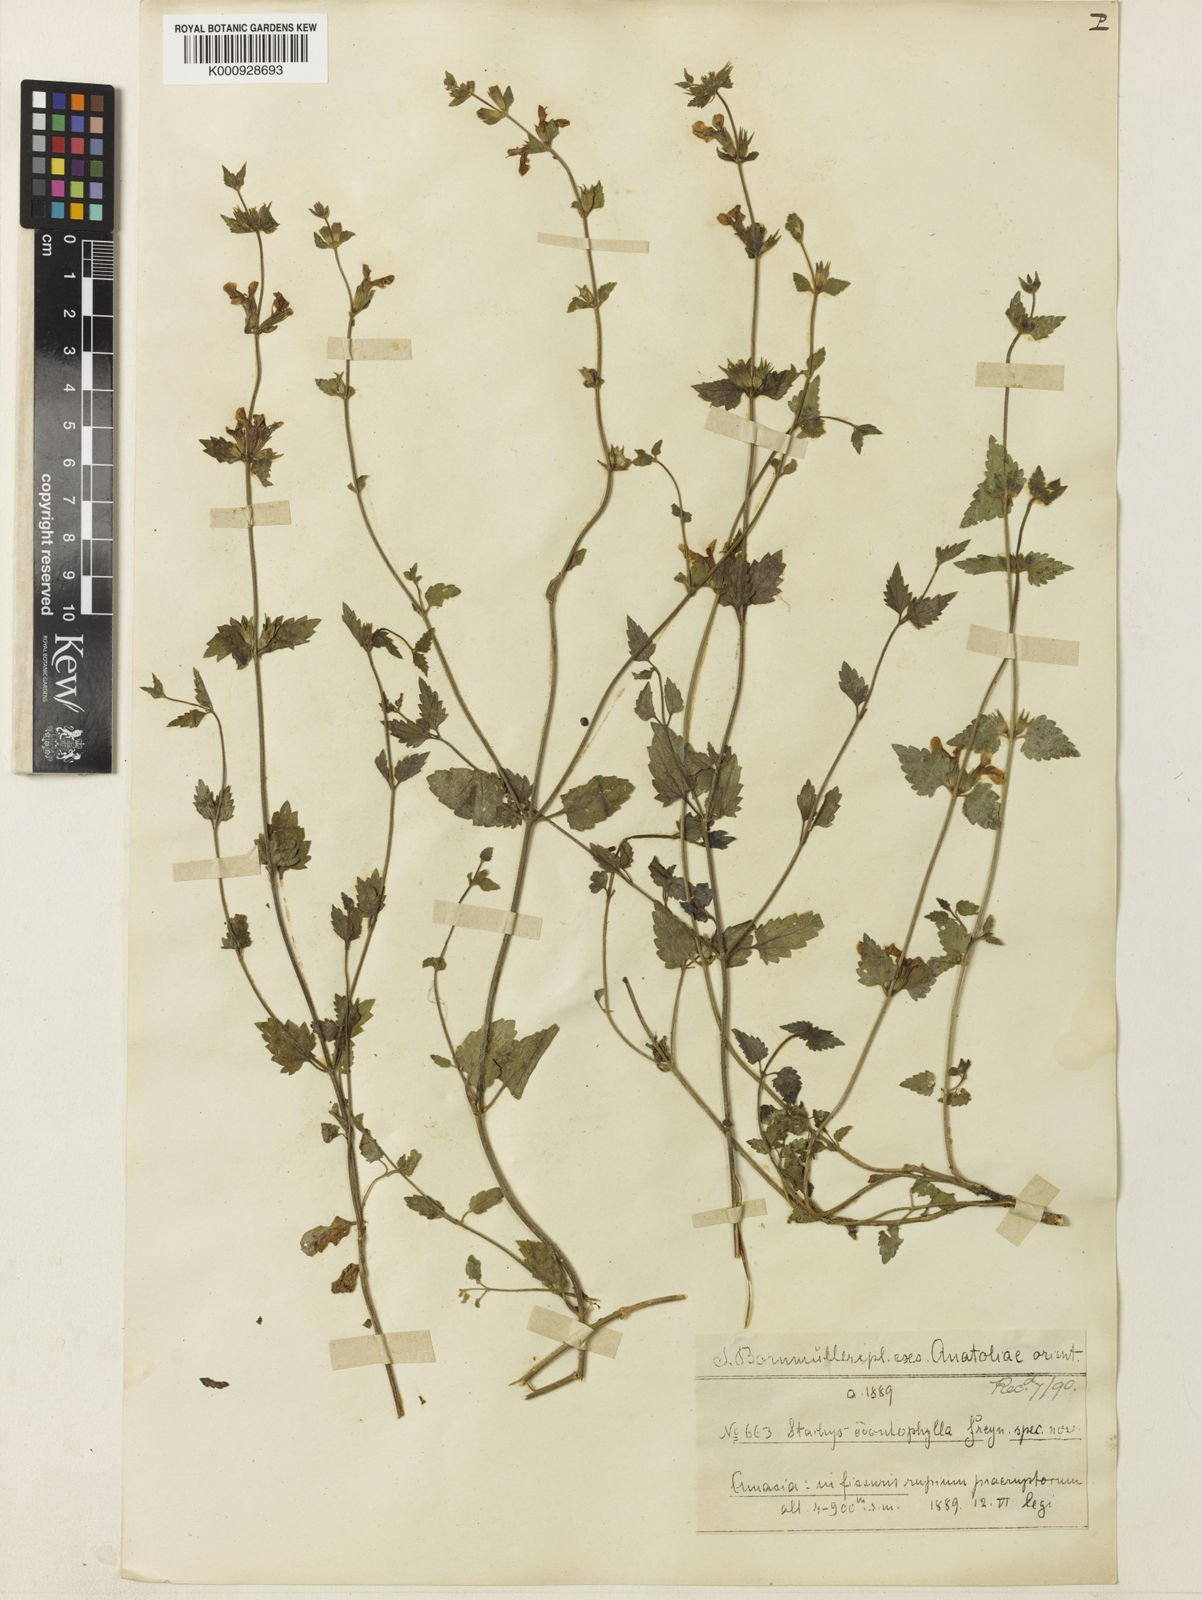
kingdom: Plantae
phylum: Tracheophyta
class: Magnoliopsida
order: Lamiales
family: Lamiaceae
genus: Stachys
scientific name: Stachys viscosa
